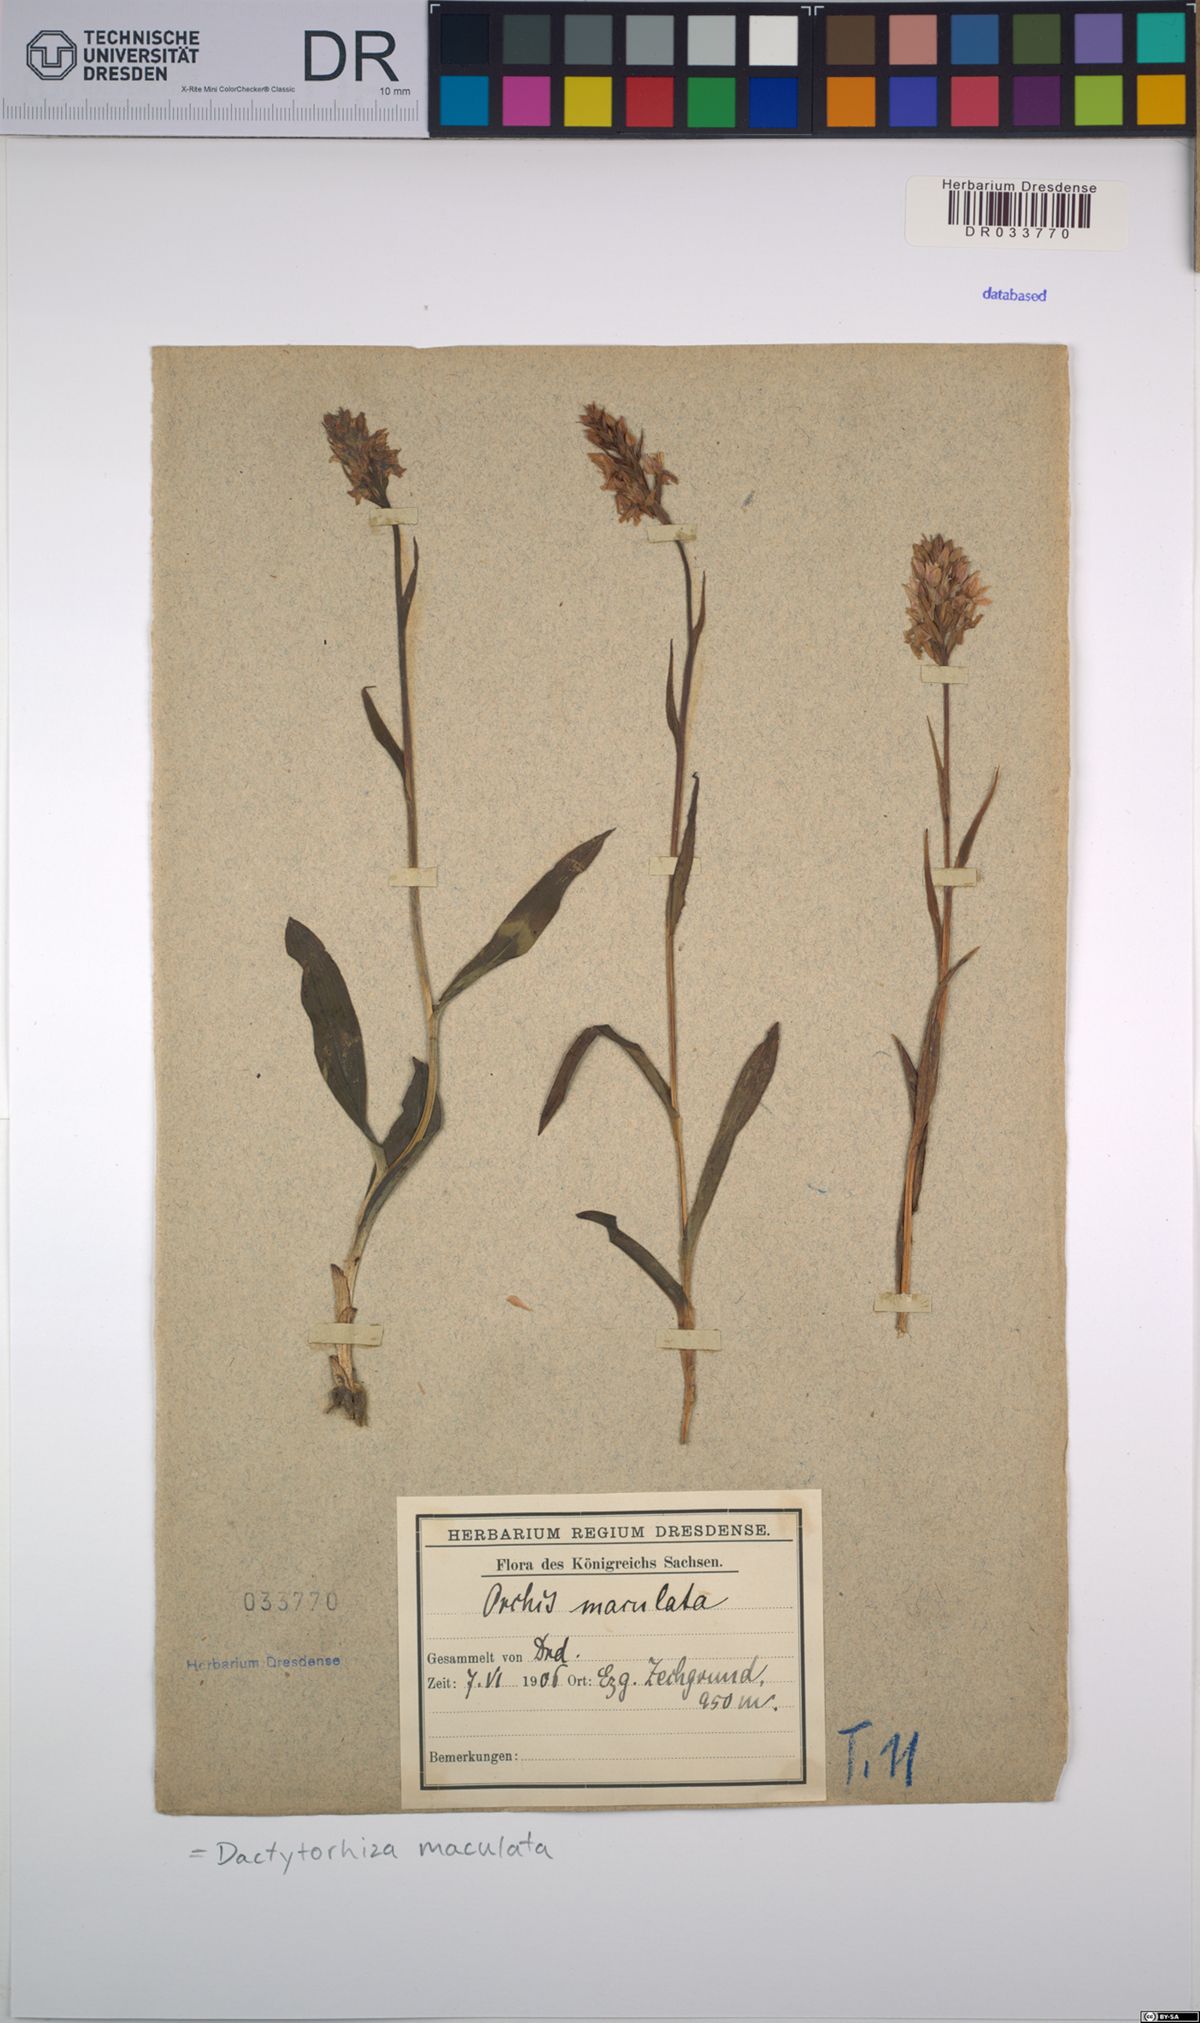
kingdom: Plantae
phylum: Tracheophyta
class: Liliopsida
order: Asparagales
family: Orchidaceae
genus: Dactylorhiza
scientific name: Dactylorhiza maculata
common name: Heath spotted-orchid
